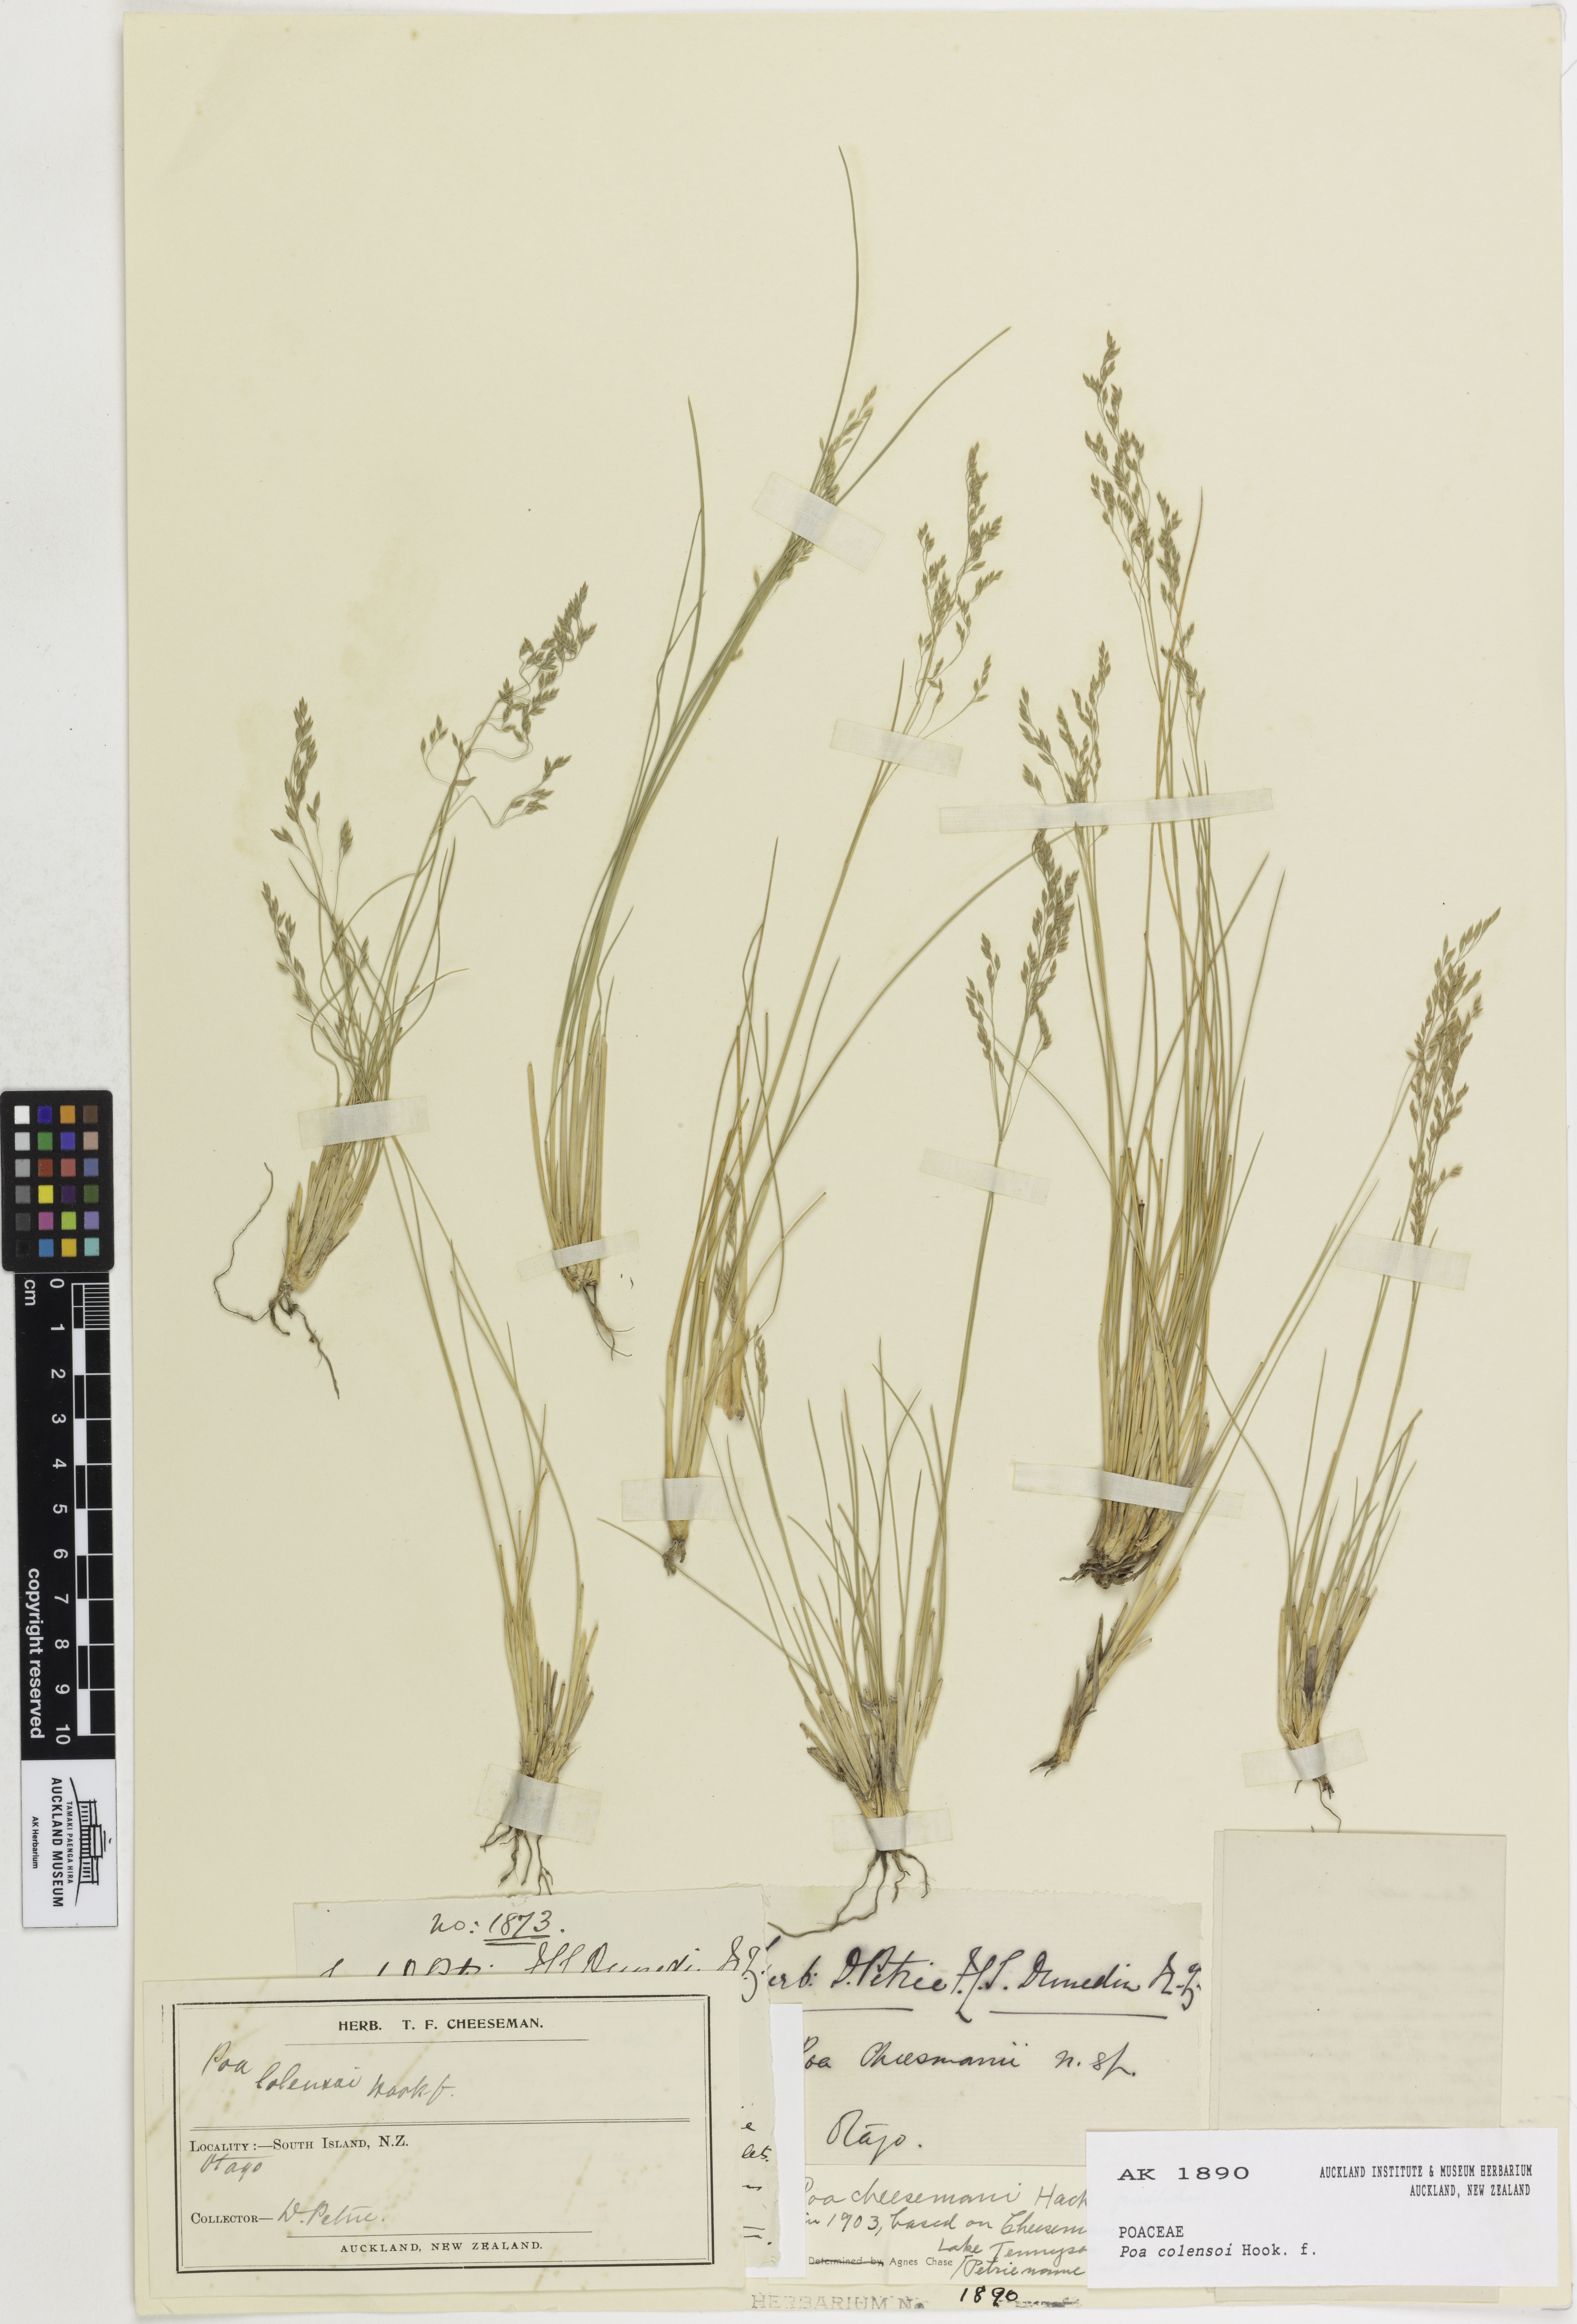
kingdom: Plantae
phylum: Tracheophyta
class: Liliopsida
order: Poales
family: Poaceae
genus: Poa
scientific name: Poa colensoi
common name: Blue tussock
